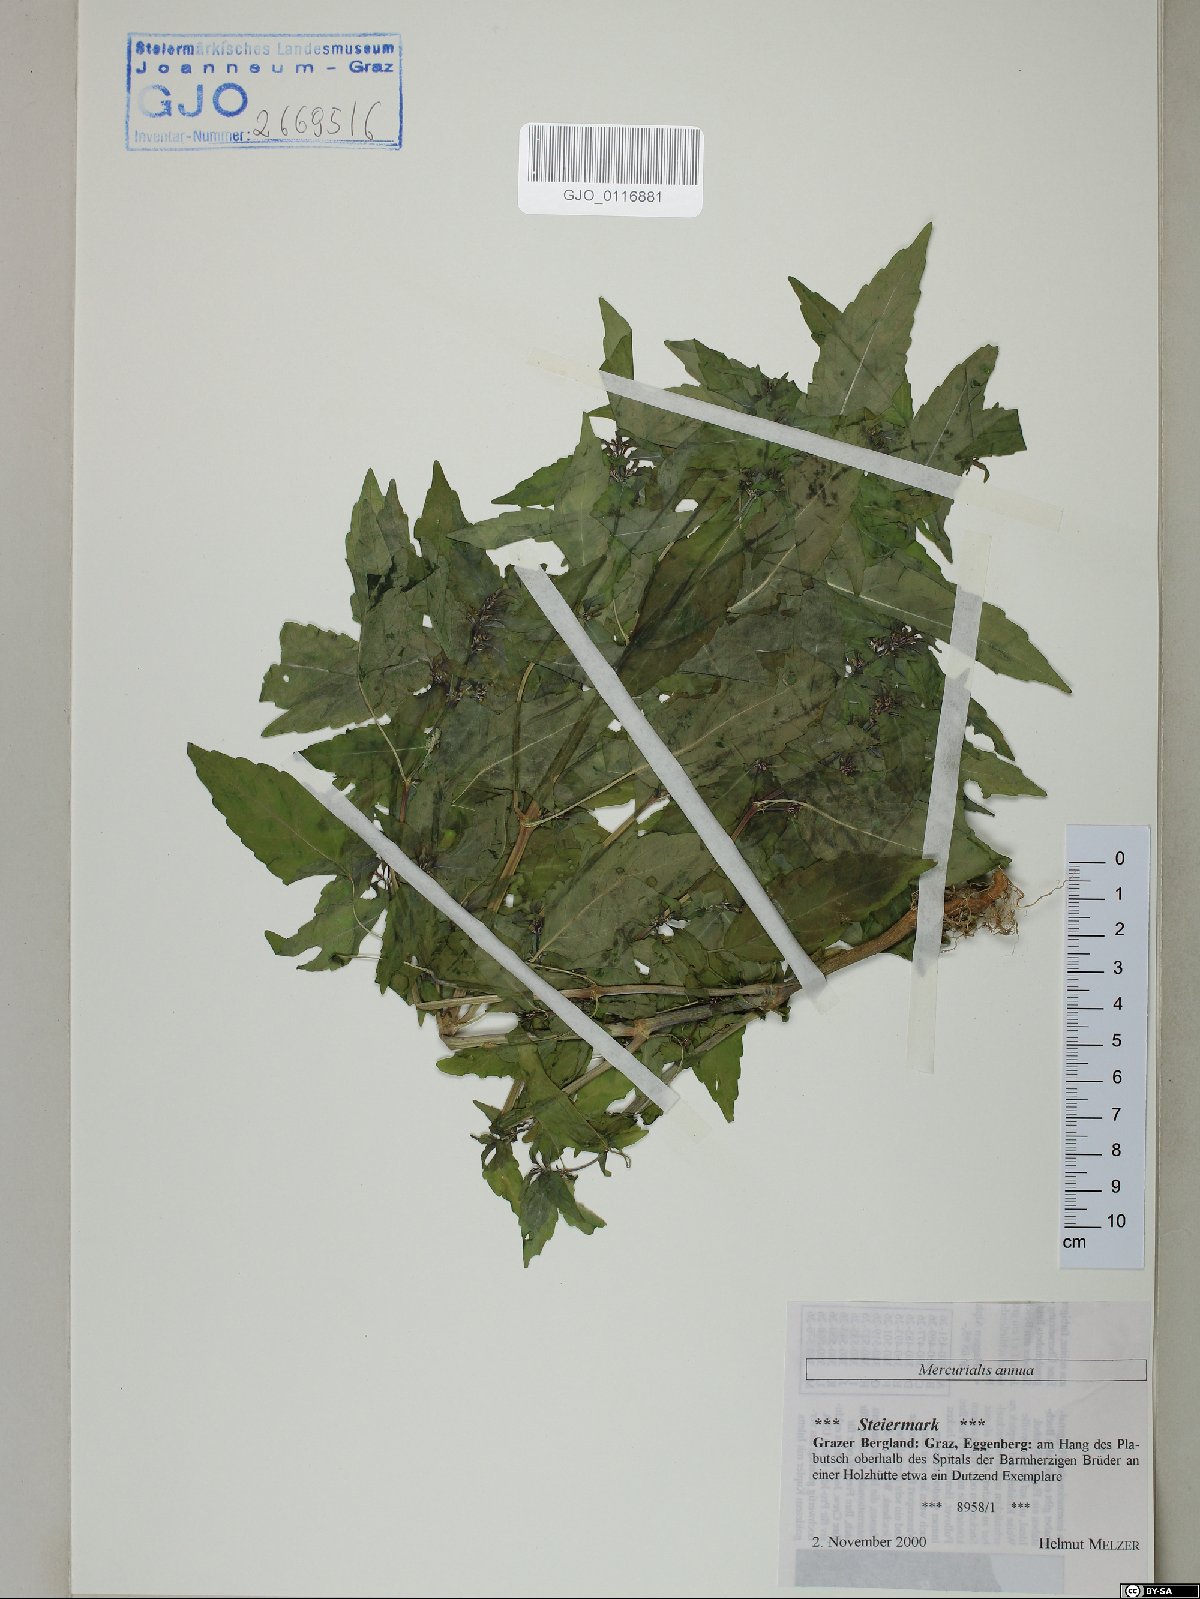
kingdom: Plantae
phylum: Tracheophyta
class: Magnoliopsida
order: Malpighiales
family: Euphorbiaceae
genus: Mercurialis
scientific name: Mercurialis annua
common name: Annual mercury
